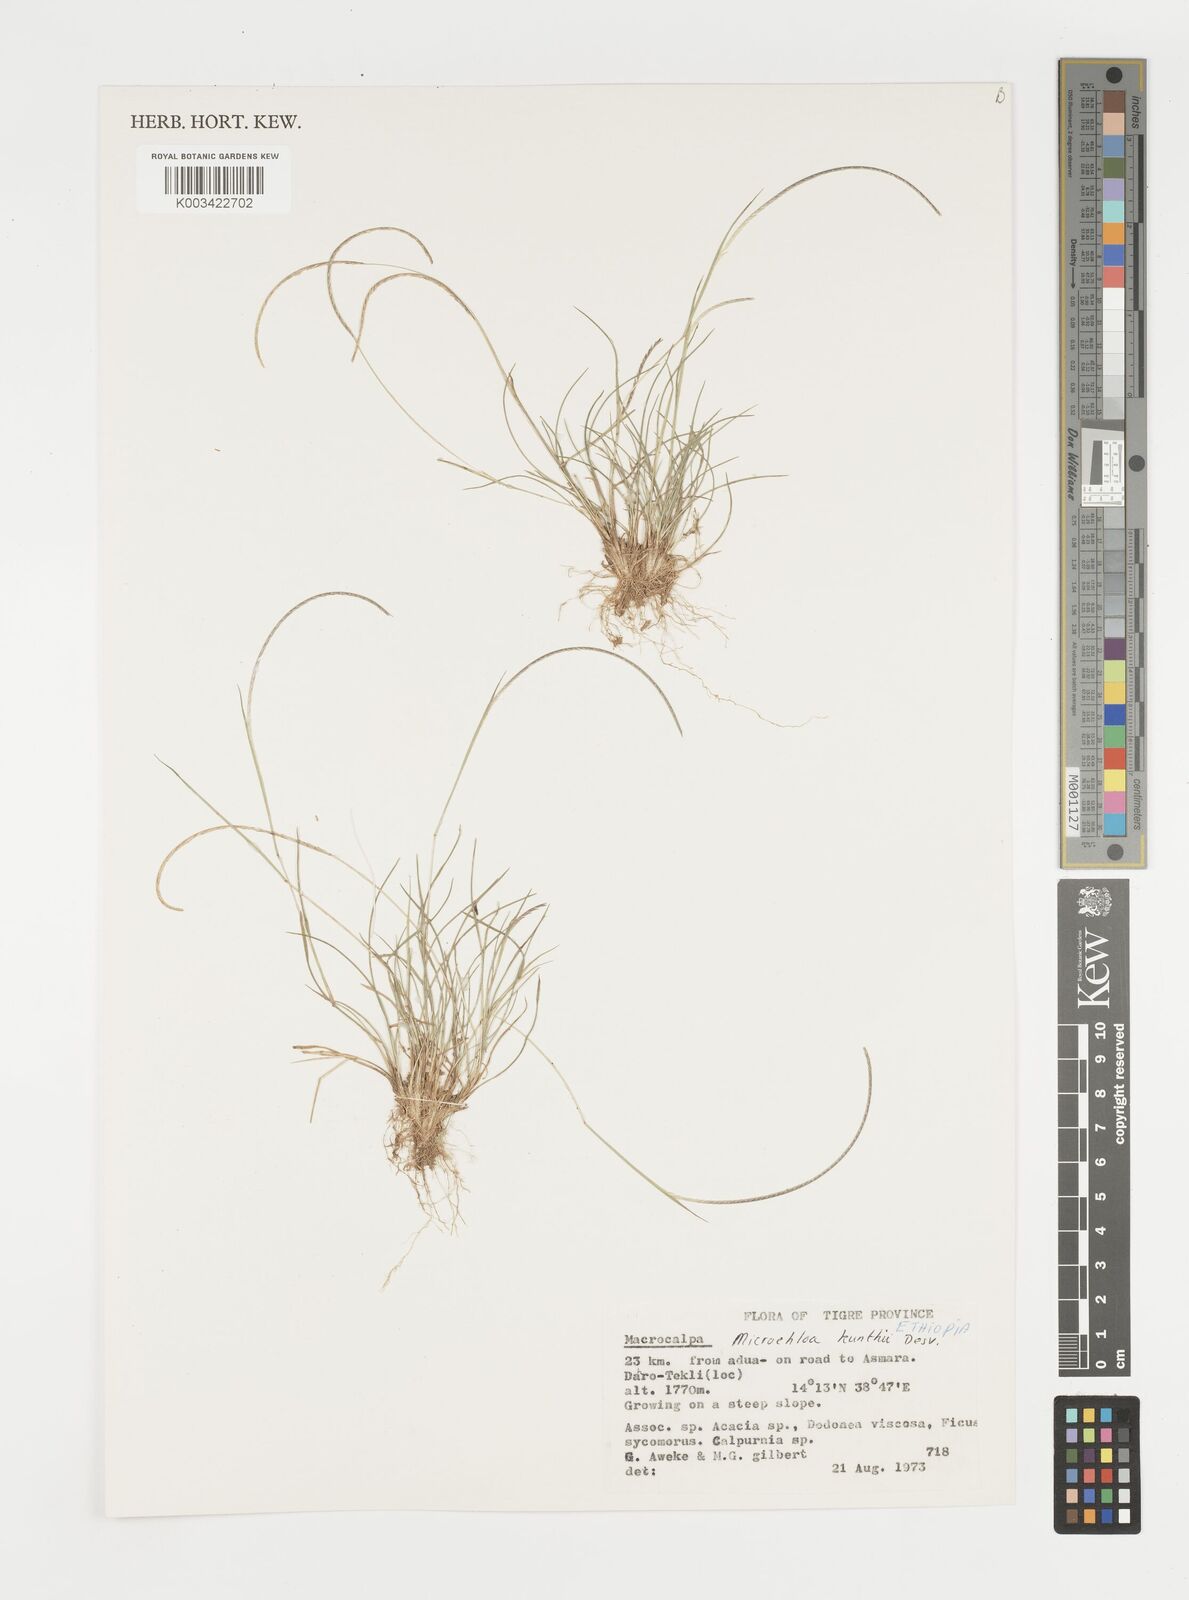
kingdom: Plantae
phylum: Tracheophyta
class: Liliopsida
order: Poales
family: Poaceae
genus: Microchloa
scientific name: Microchloa kunthii
